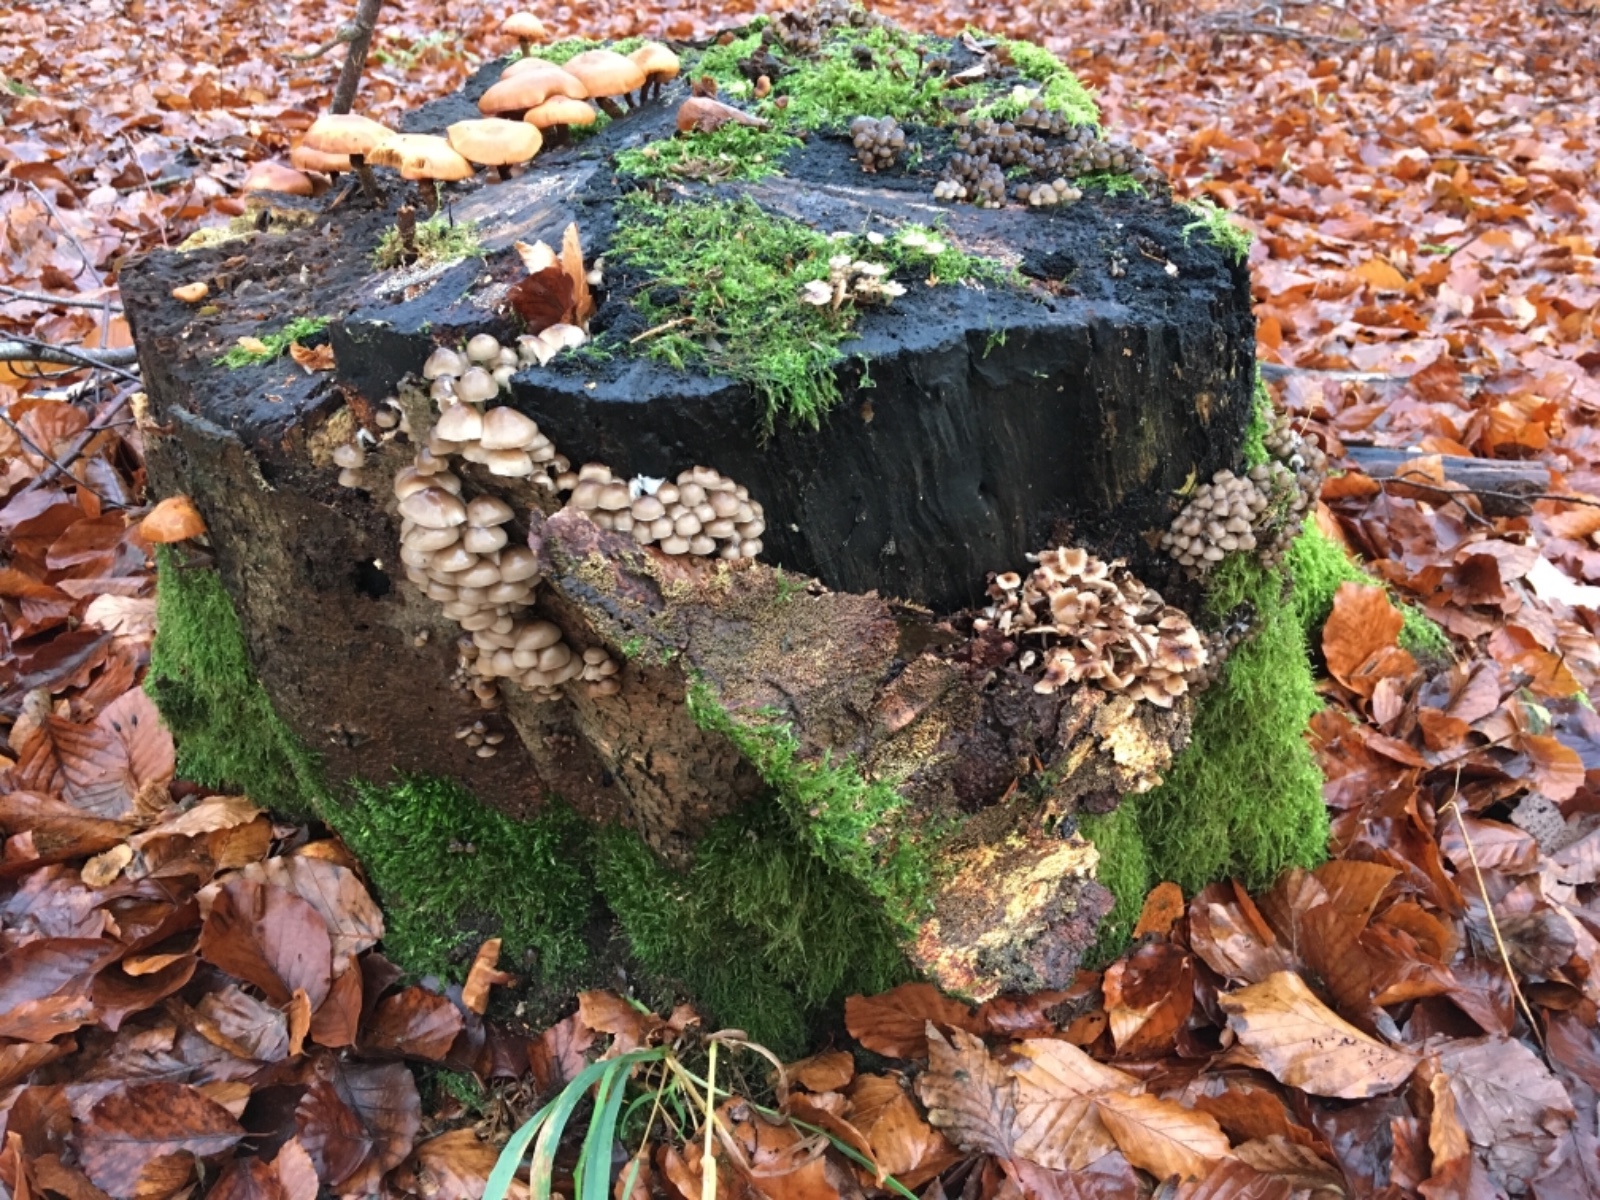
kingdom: Fungi
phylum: Basidiomycota
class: Agaricomycetes
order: Agaricales
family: Mycenaceae
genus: Mycena
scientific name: Mycena tintinnabulum
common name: vinter-huesvamp
